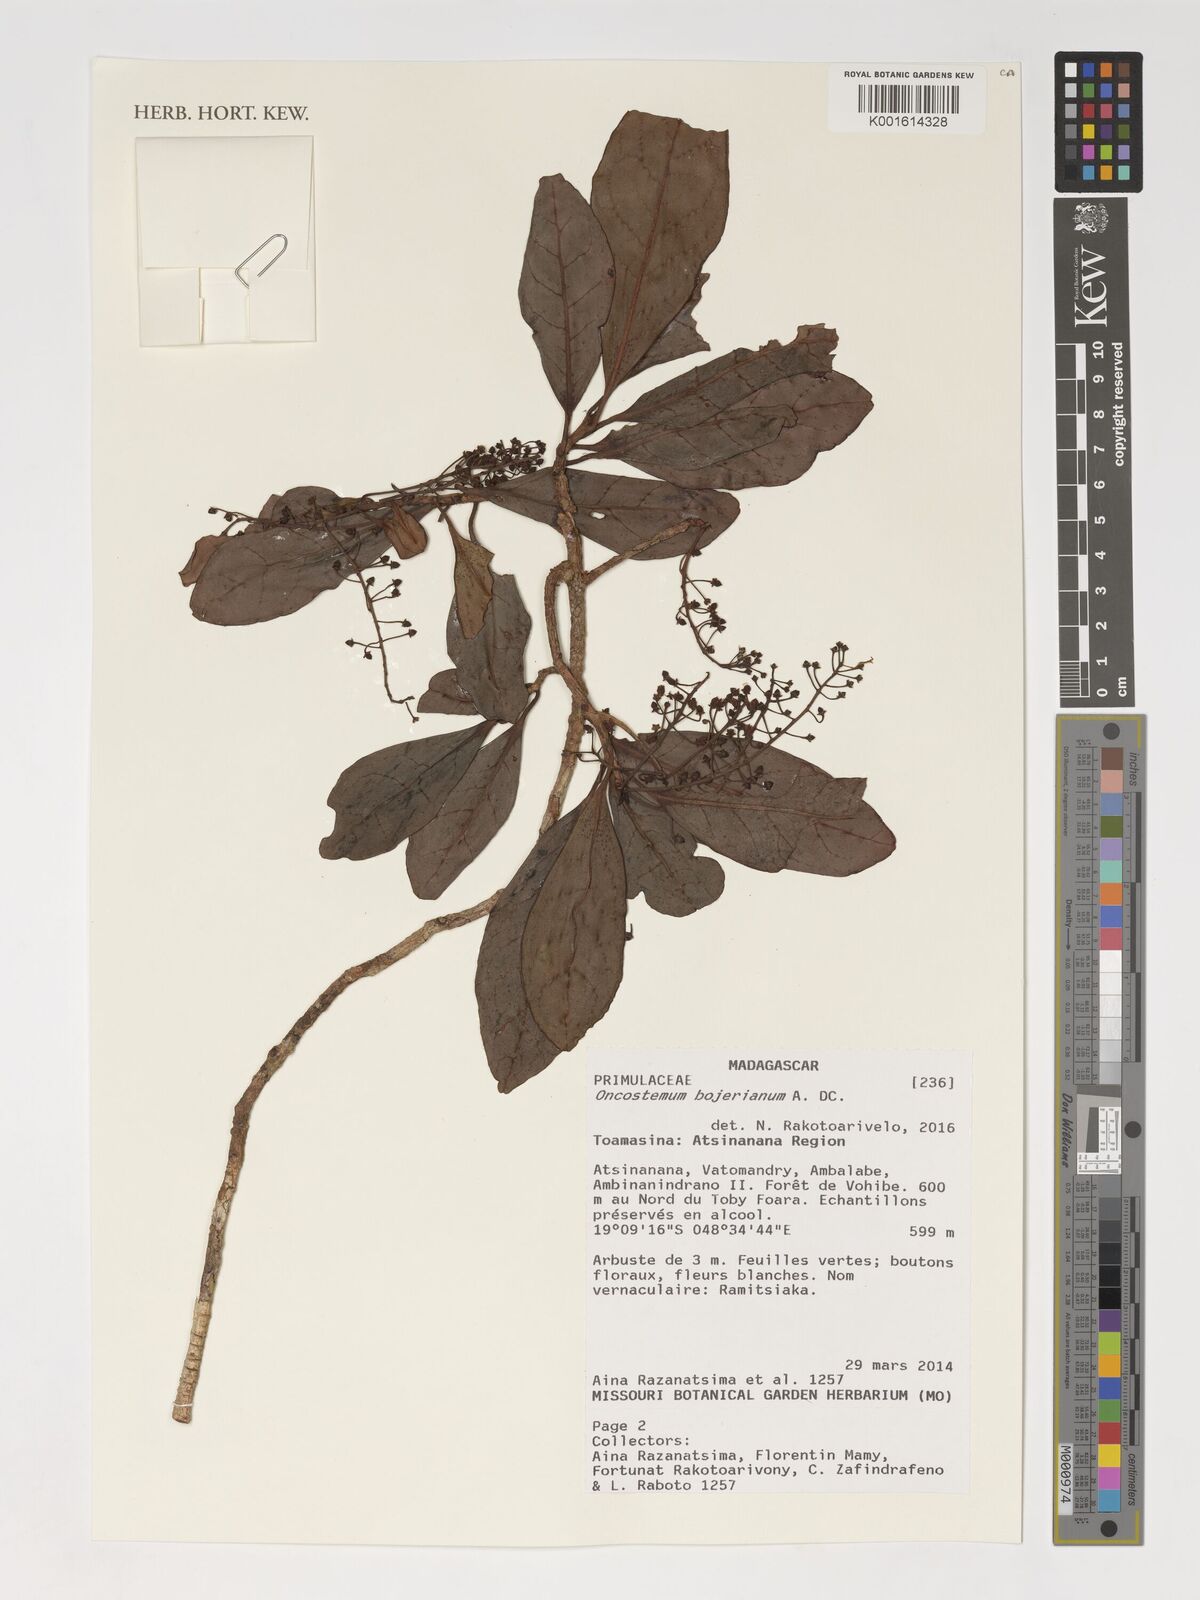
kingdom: Plantae
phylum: Tracheophyta
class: Magnoliopsida
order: Ericales
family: Primulaceae
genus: Oncostemum
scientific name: Oncostemum bojerianum
